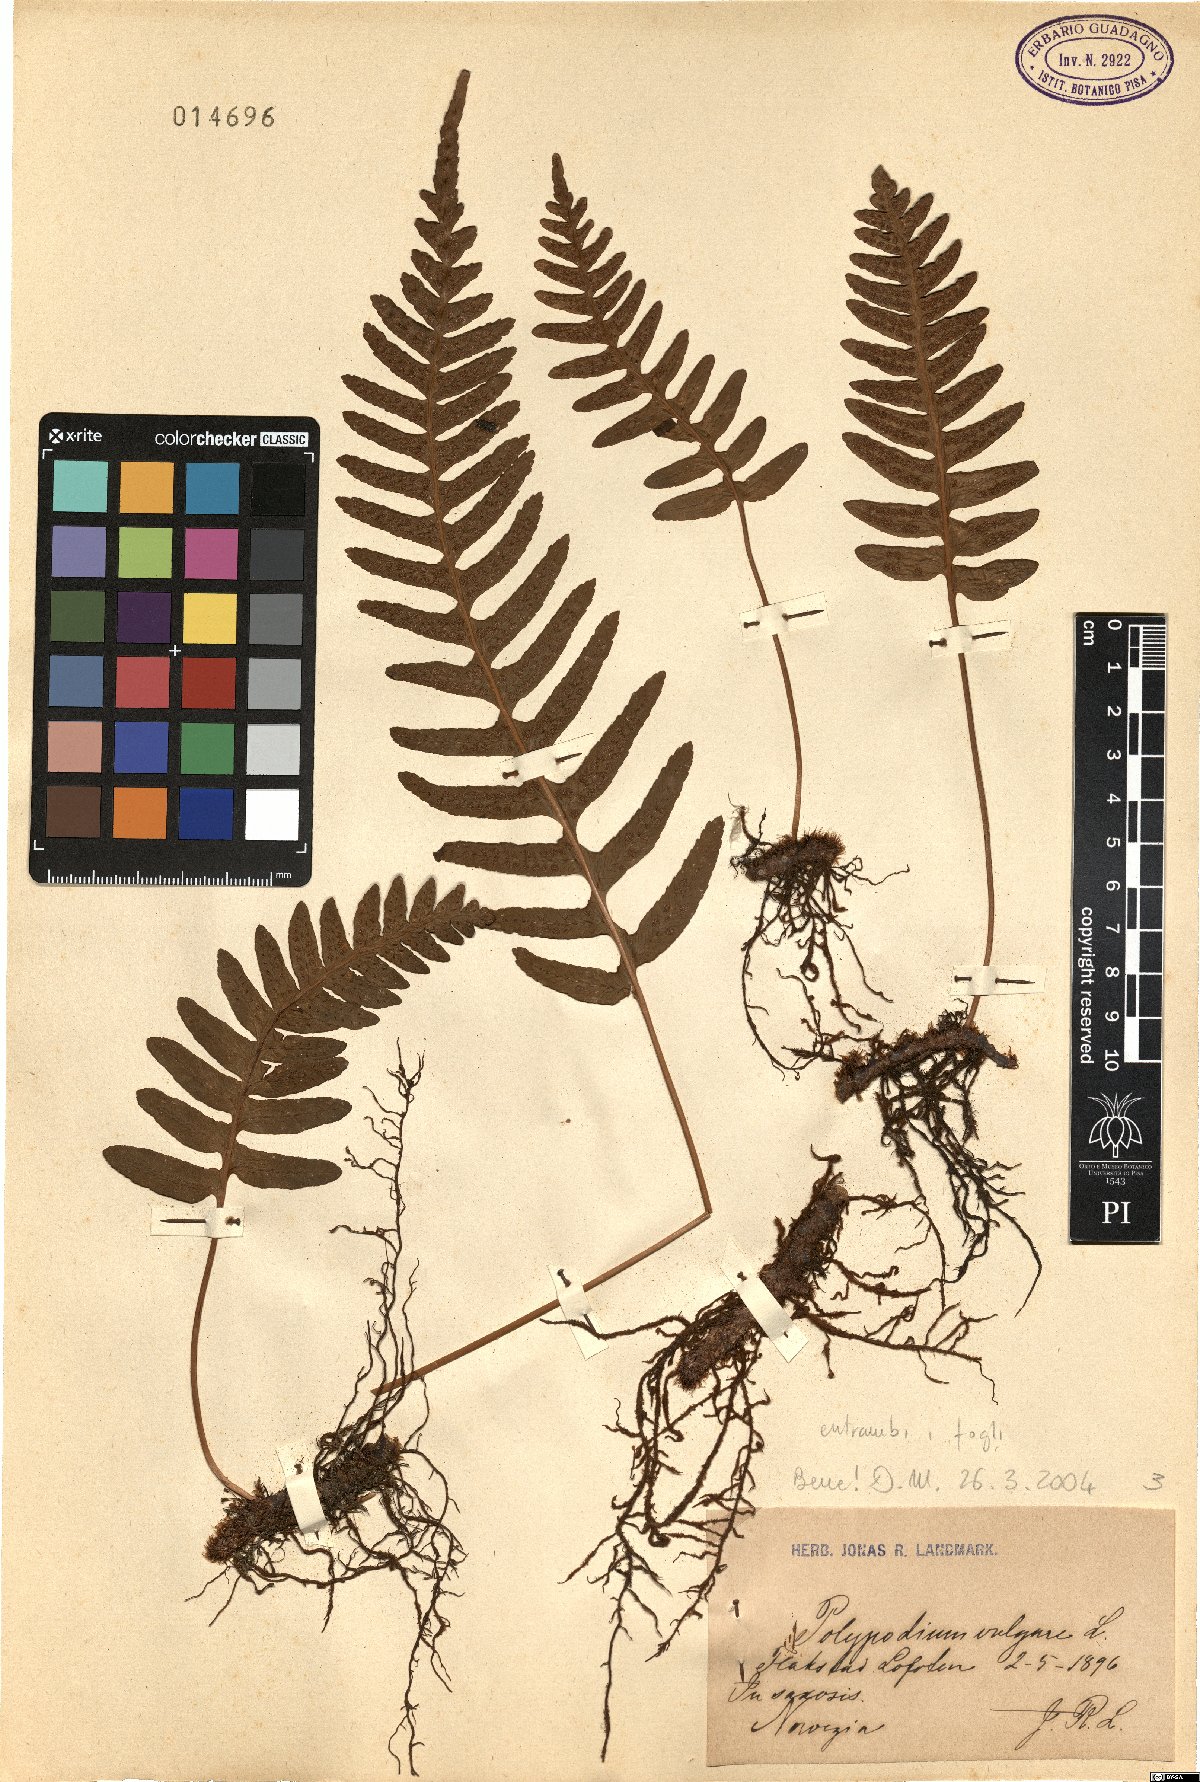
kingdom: Plantae
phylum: Tracheophyta
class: Polypodiopsida
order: Polypodiales
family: Polypodiaceae
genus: Polypodium
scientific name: Polypodium vulgare
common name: Common polypody
